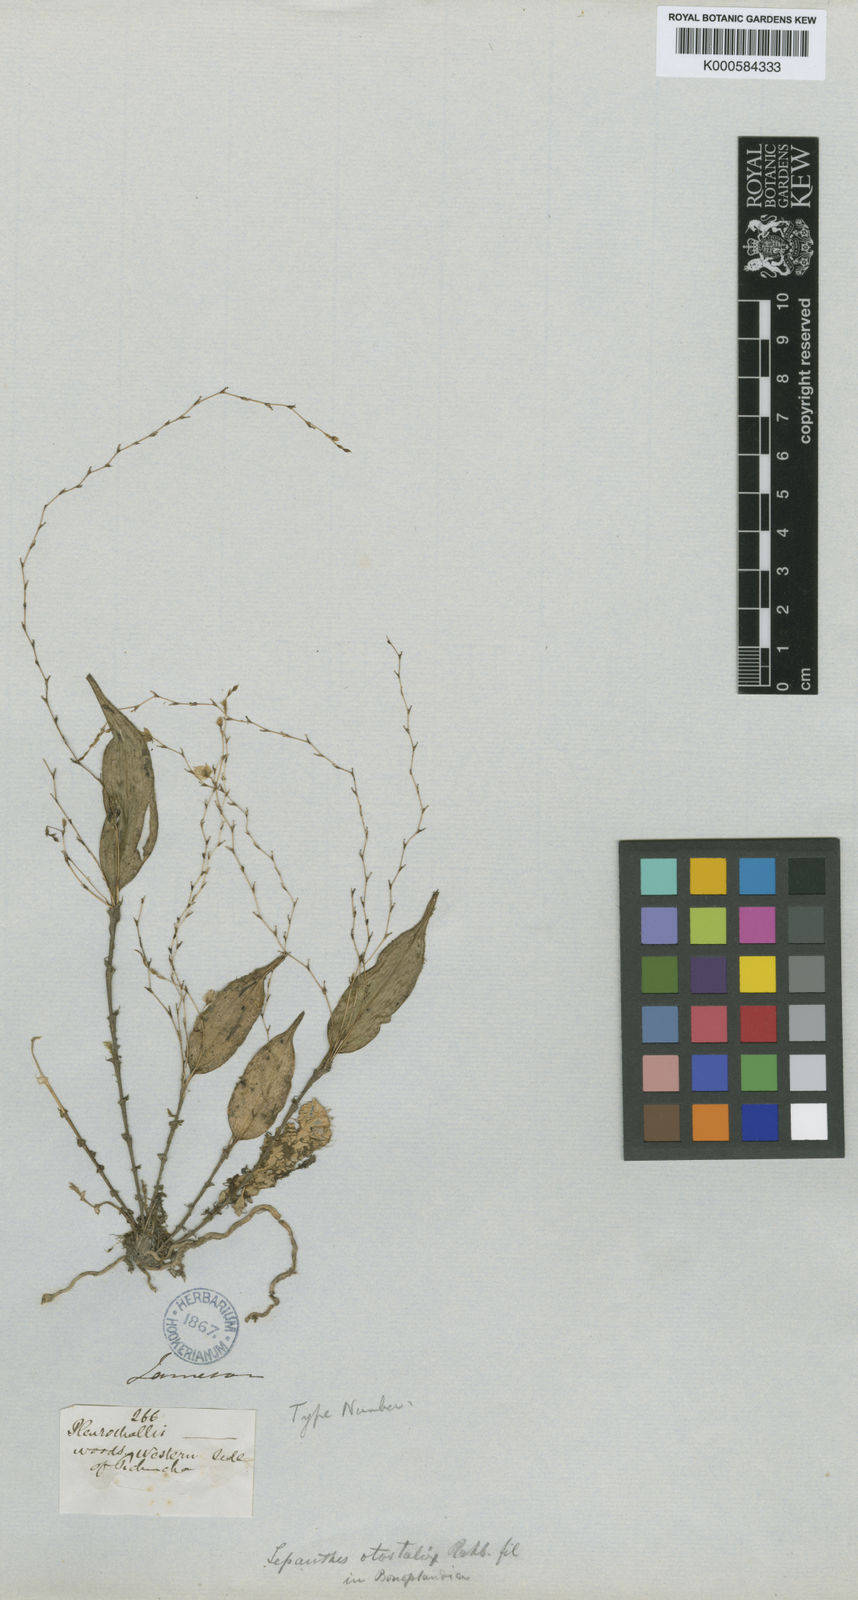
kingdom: Plantae
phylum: Tracheophyta
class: Liliopsida
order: Asparagales
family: Orchidaceae
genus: Lepanthes
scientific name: Lepanthes biloba
